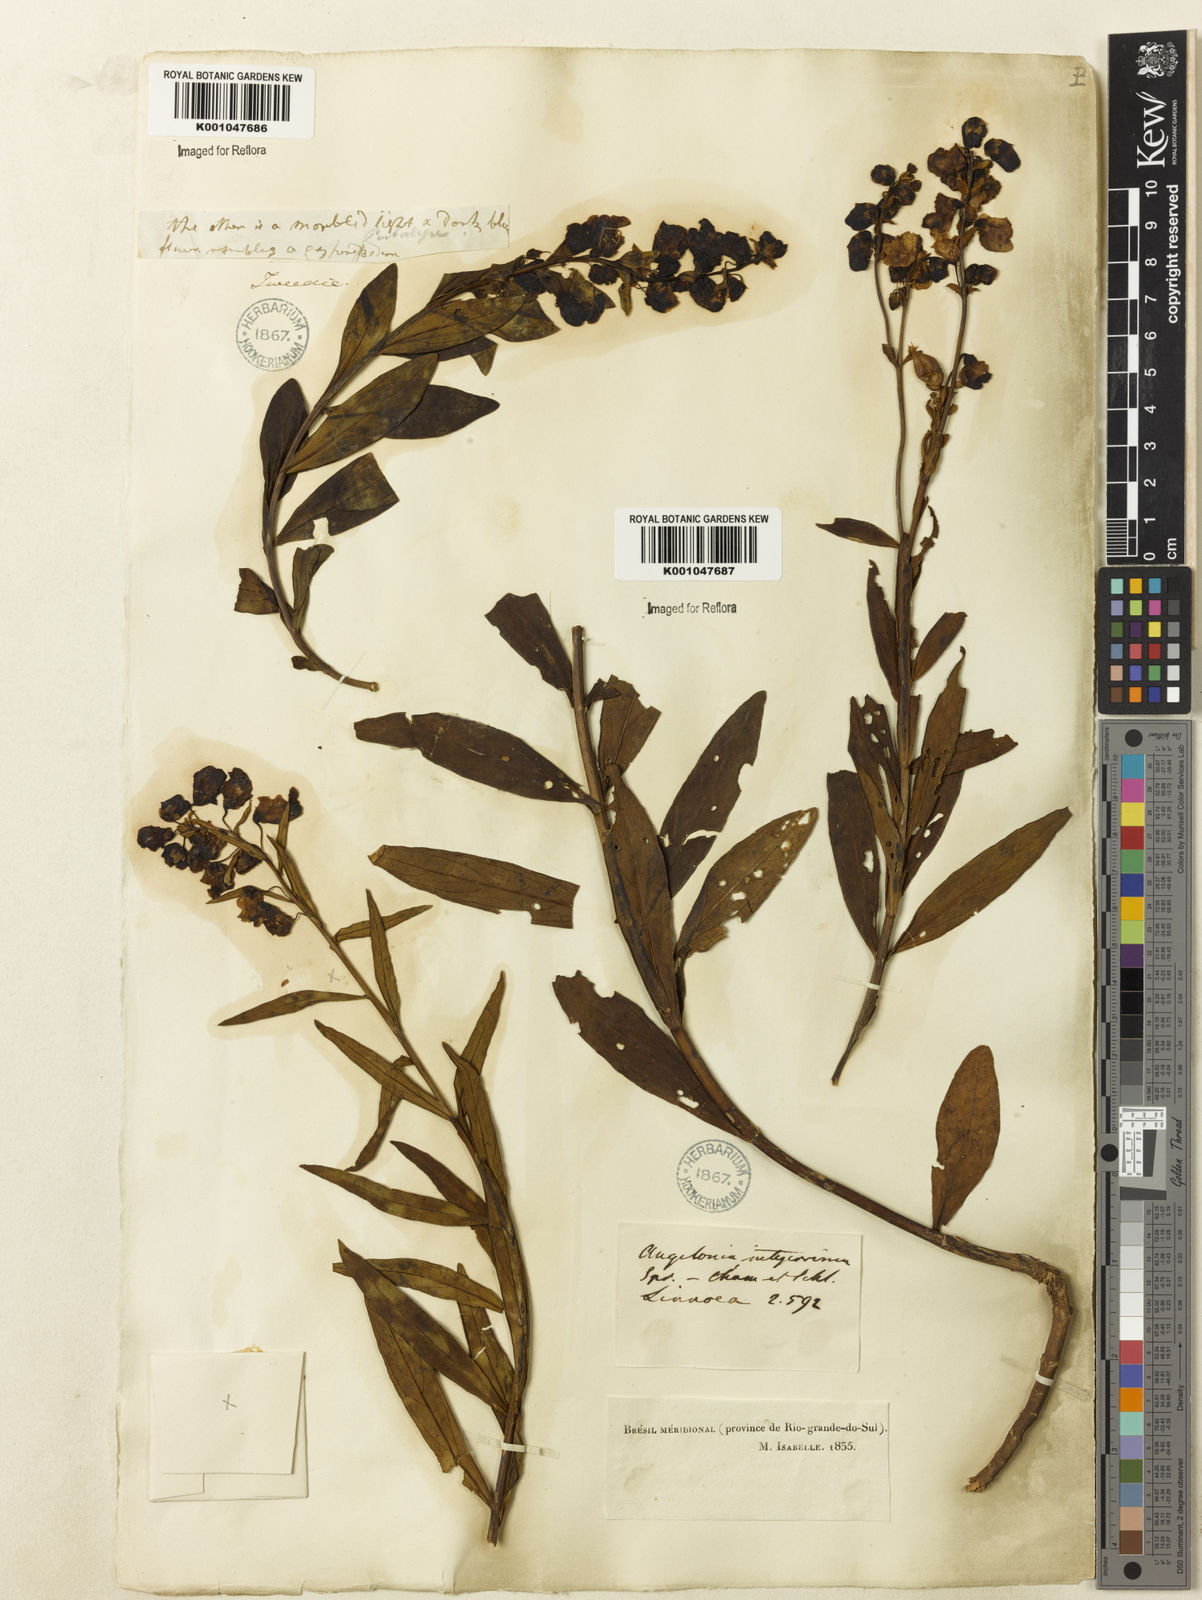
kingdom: Plantae
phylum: Tracheophyta
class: Magnoliopsida
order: Lamiales
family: Plantaginaceae
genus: Angelonia
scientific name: Angelonia integerrima
